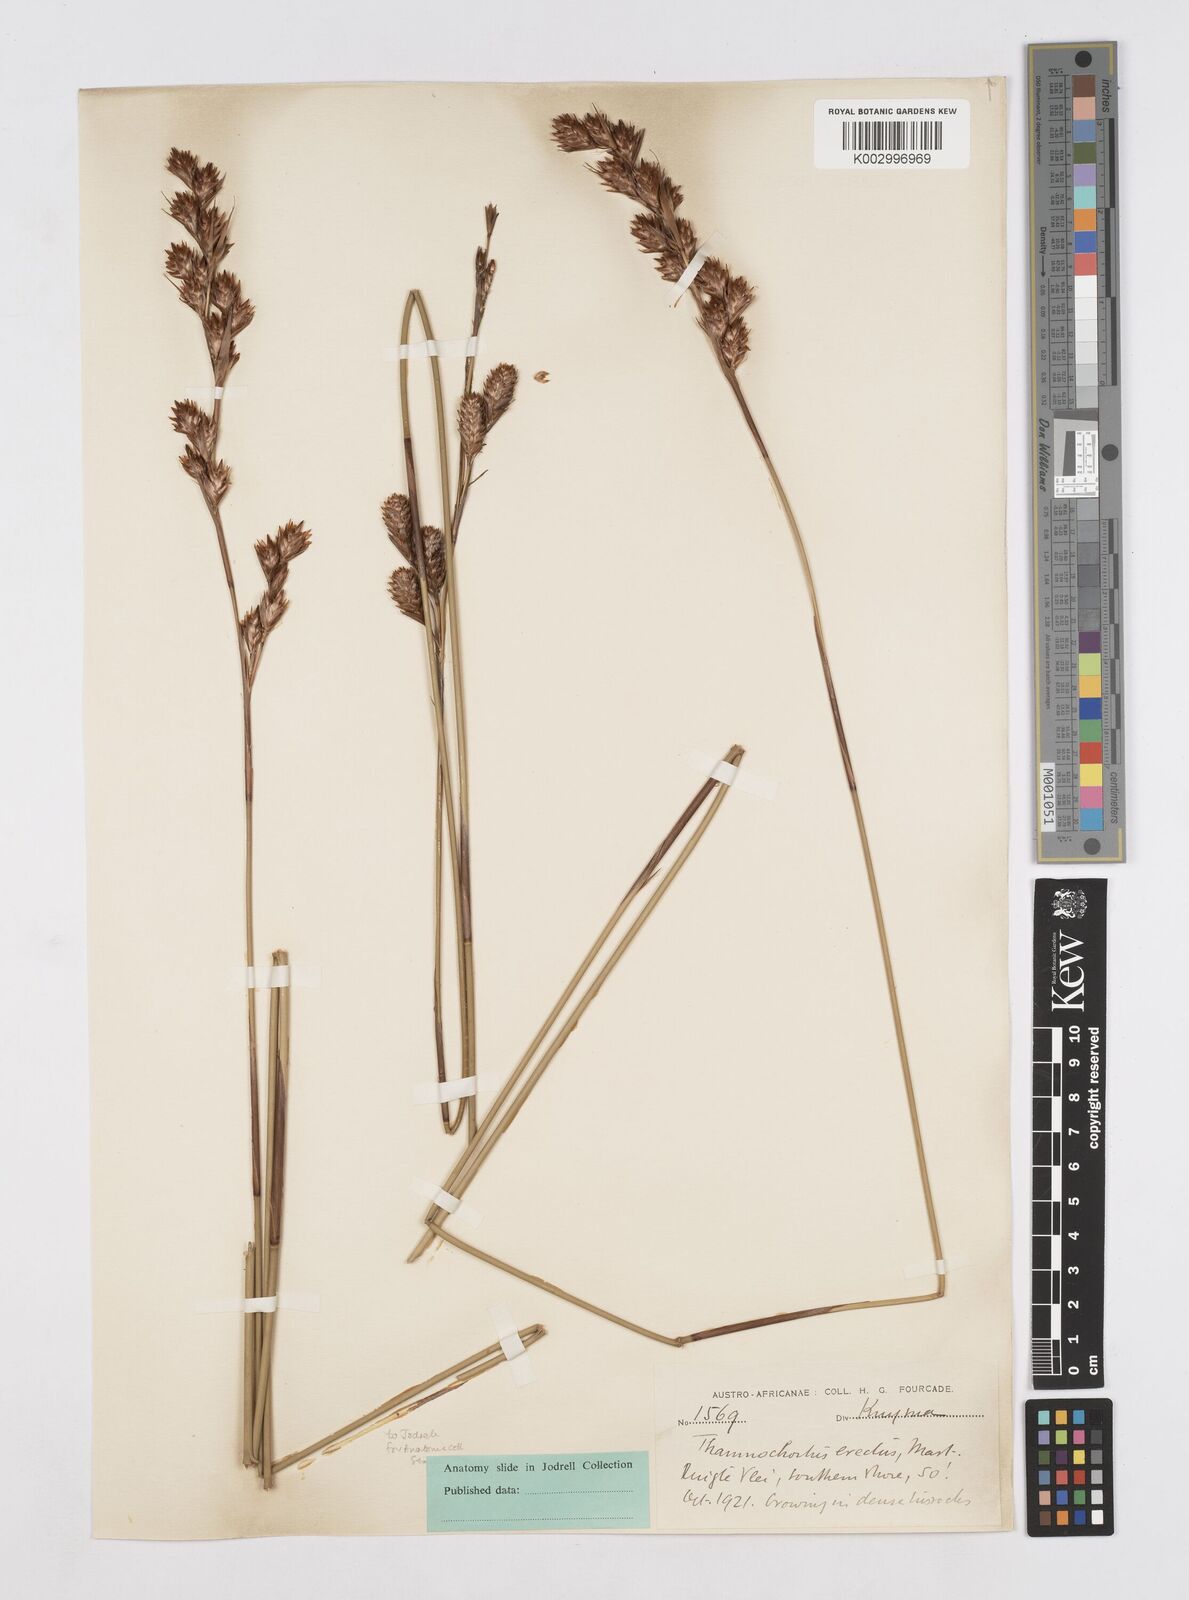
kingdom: Plantae
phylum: Tracheophyta
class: Liliopsida
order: Poales
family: Restionaceae
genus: Thamnochortus
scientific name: Thamnochortus erectus
